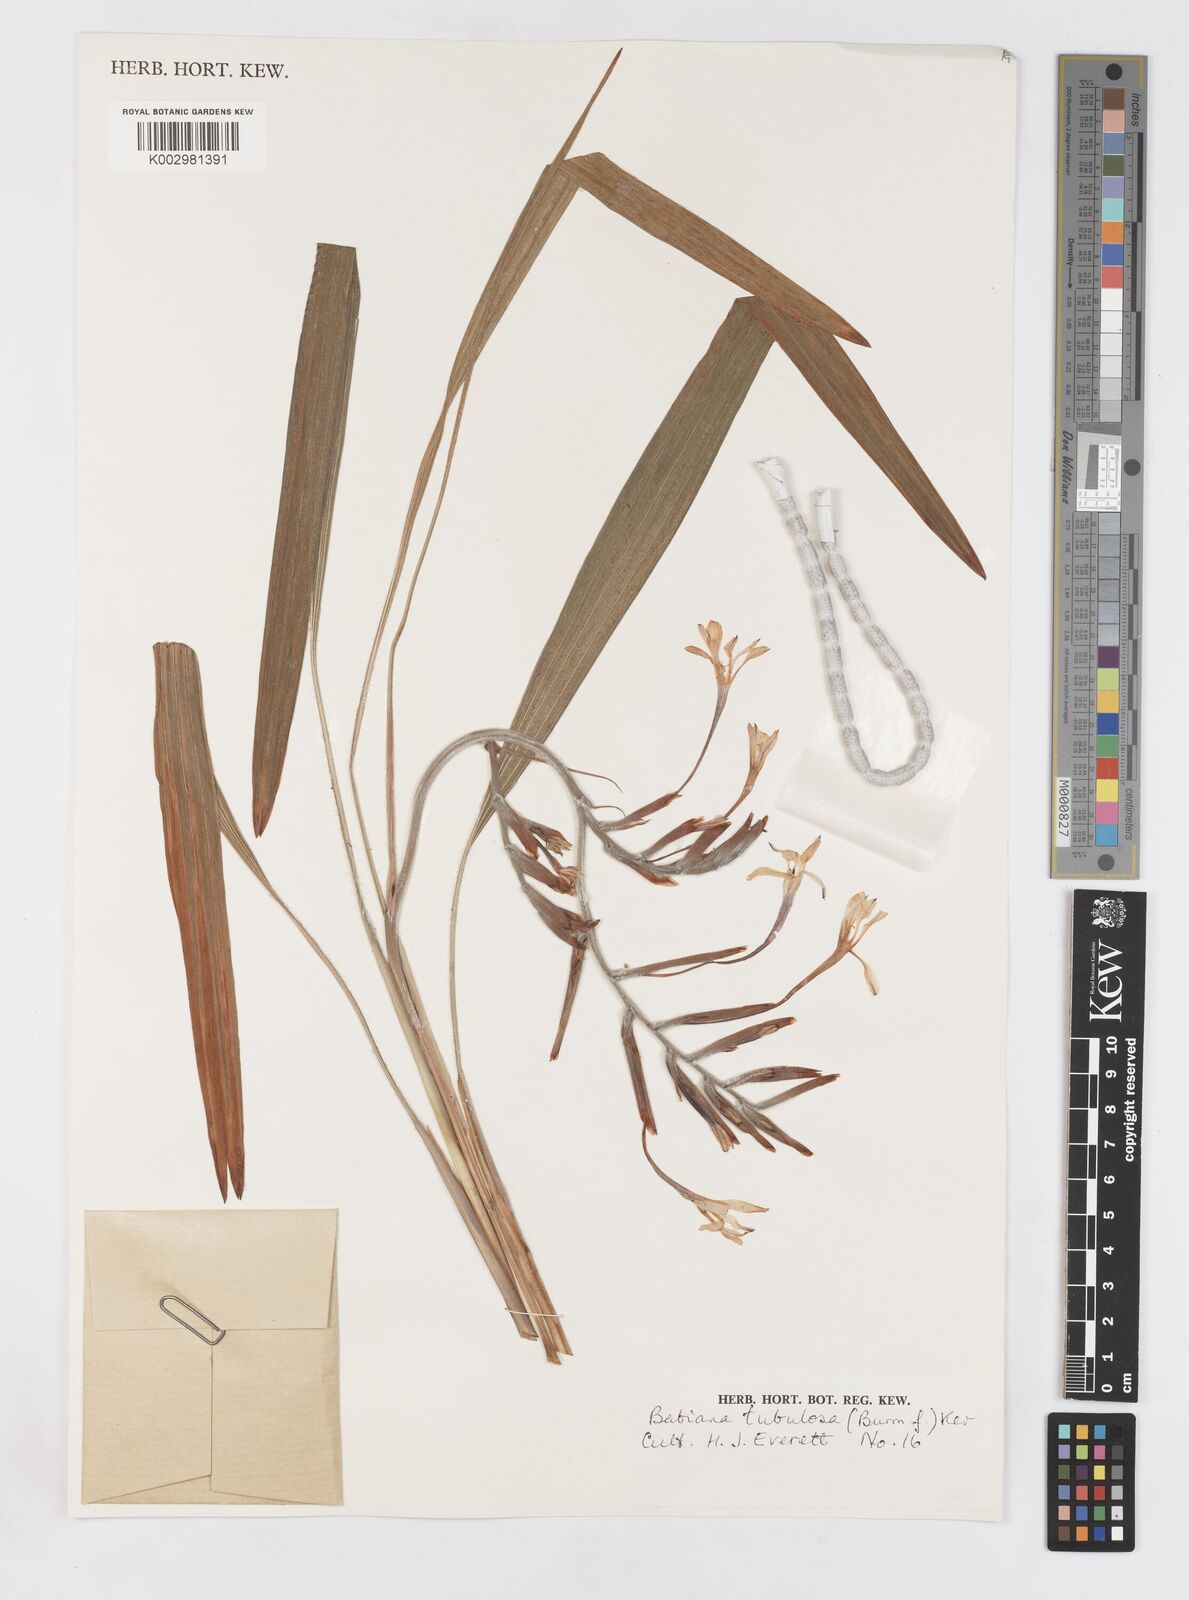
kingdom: Plantae
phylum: Tracheophyta
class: Liliopsida
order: Asparagales
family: Iridaceae
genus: Babiana
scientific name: Babiana tubulosa
